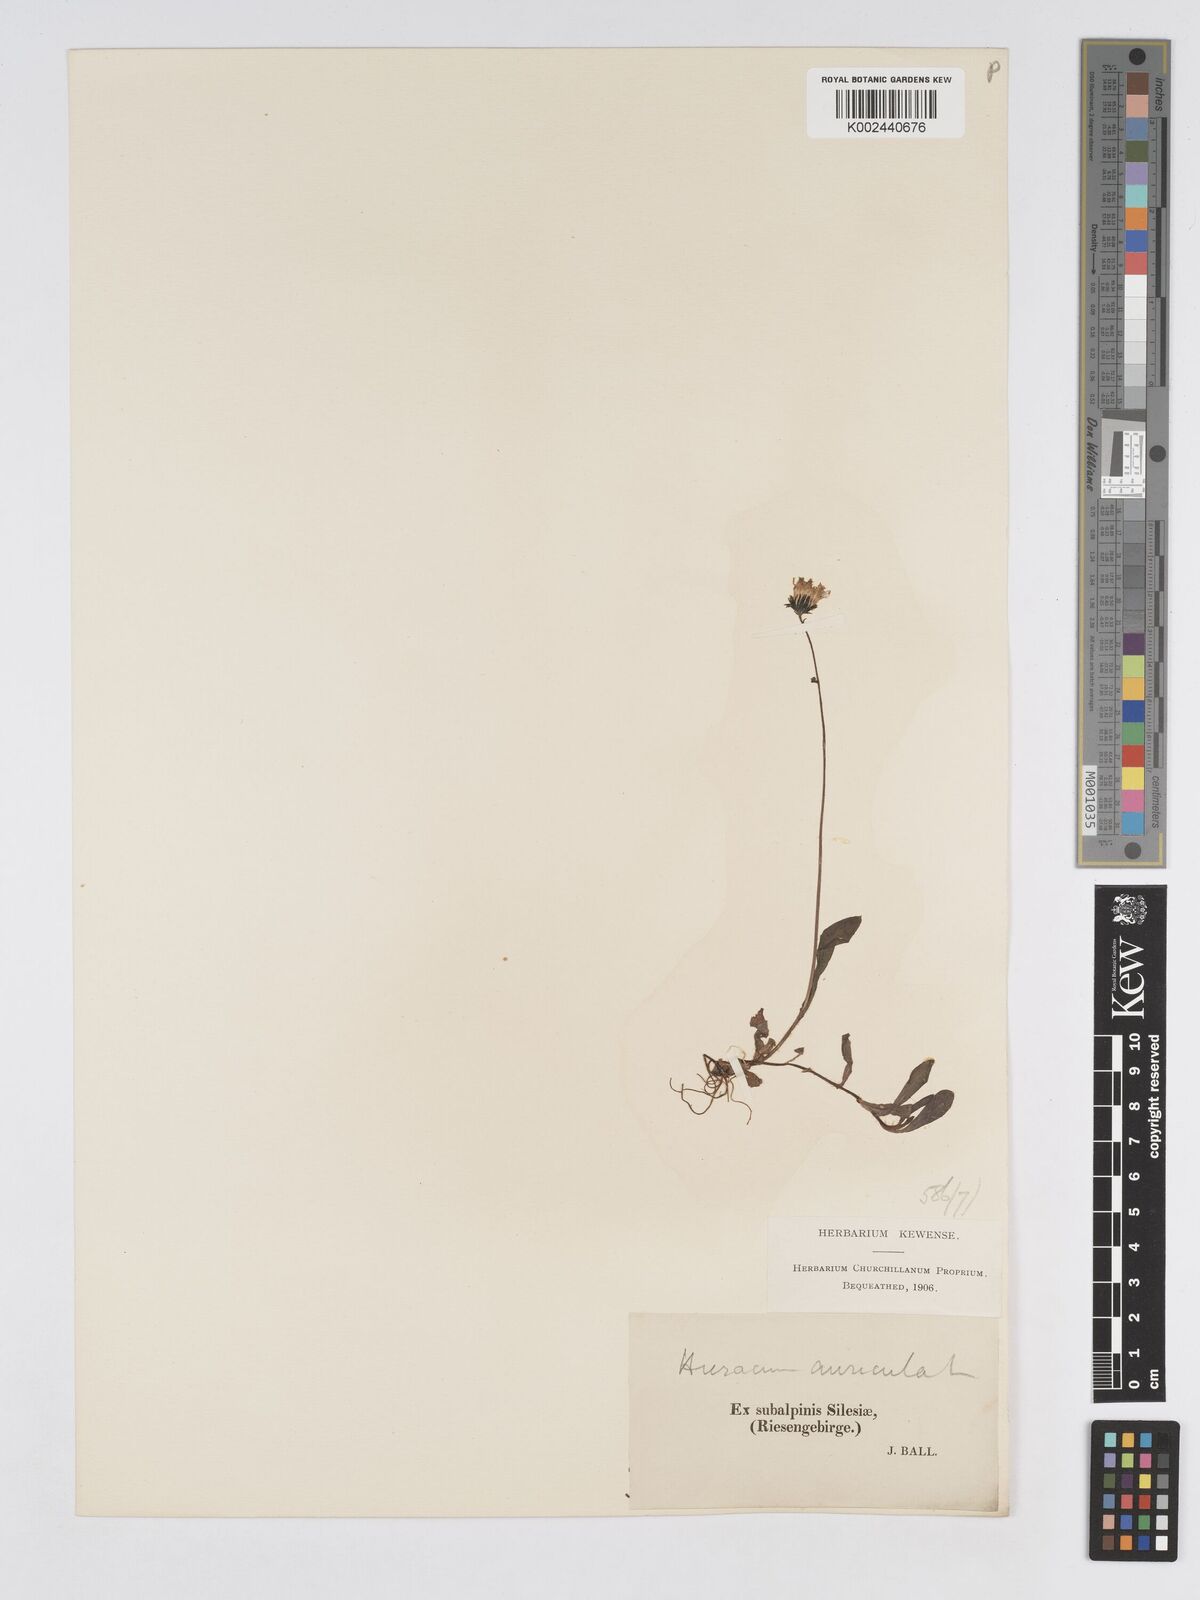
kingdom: Plantae
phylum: Tracheophyta
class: Magnoliopsida
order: Asterales
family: Asteraceae
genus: Pilosella
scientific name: Pilosella floribunda
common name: Glaucous hawkweed
